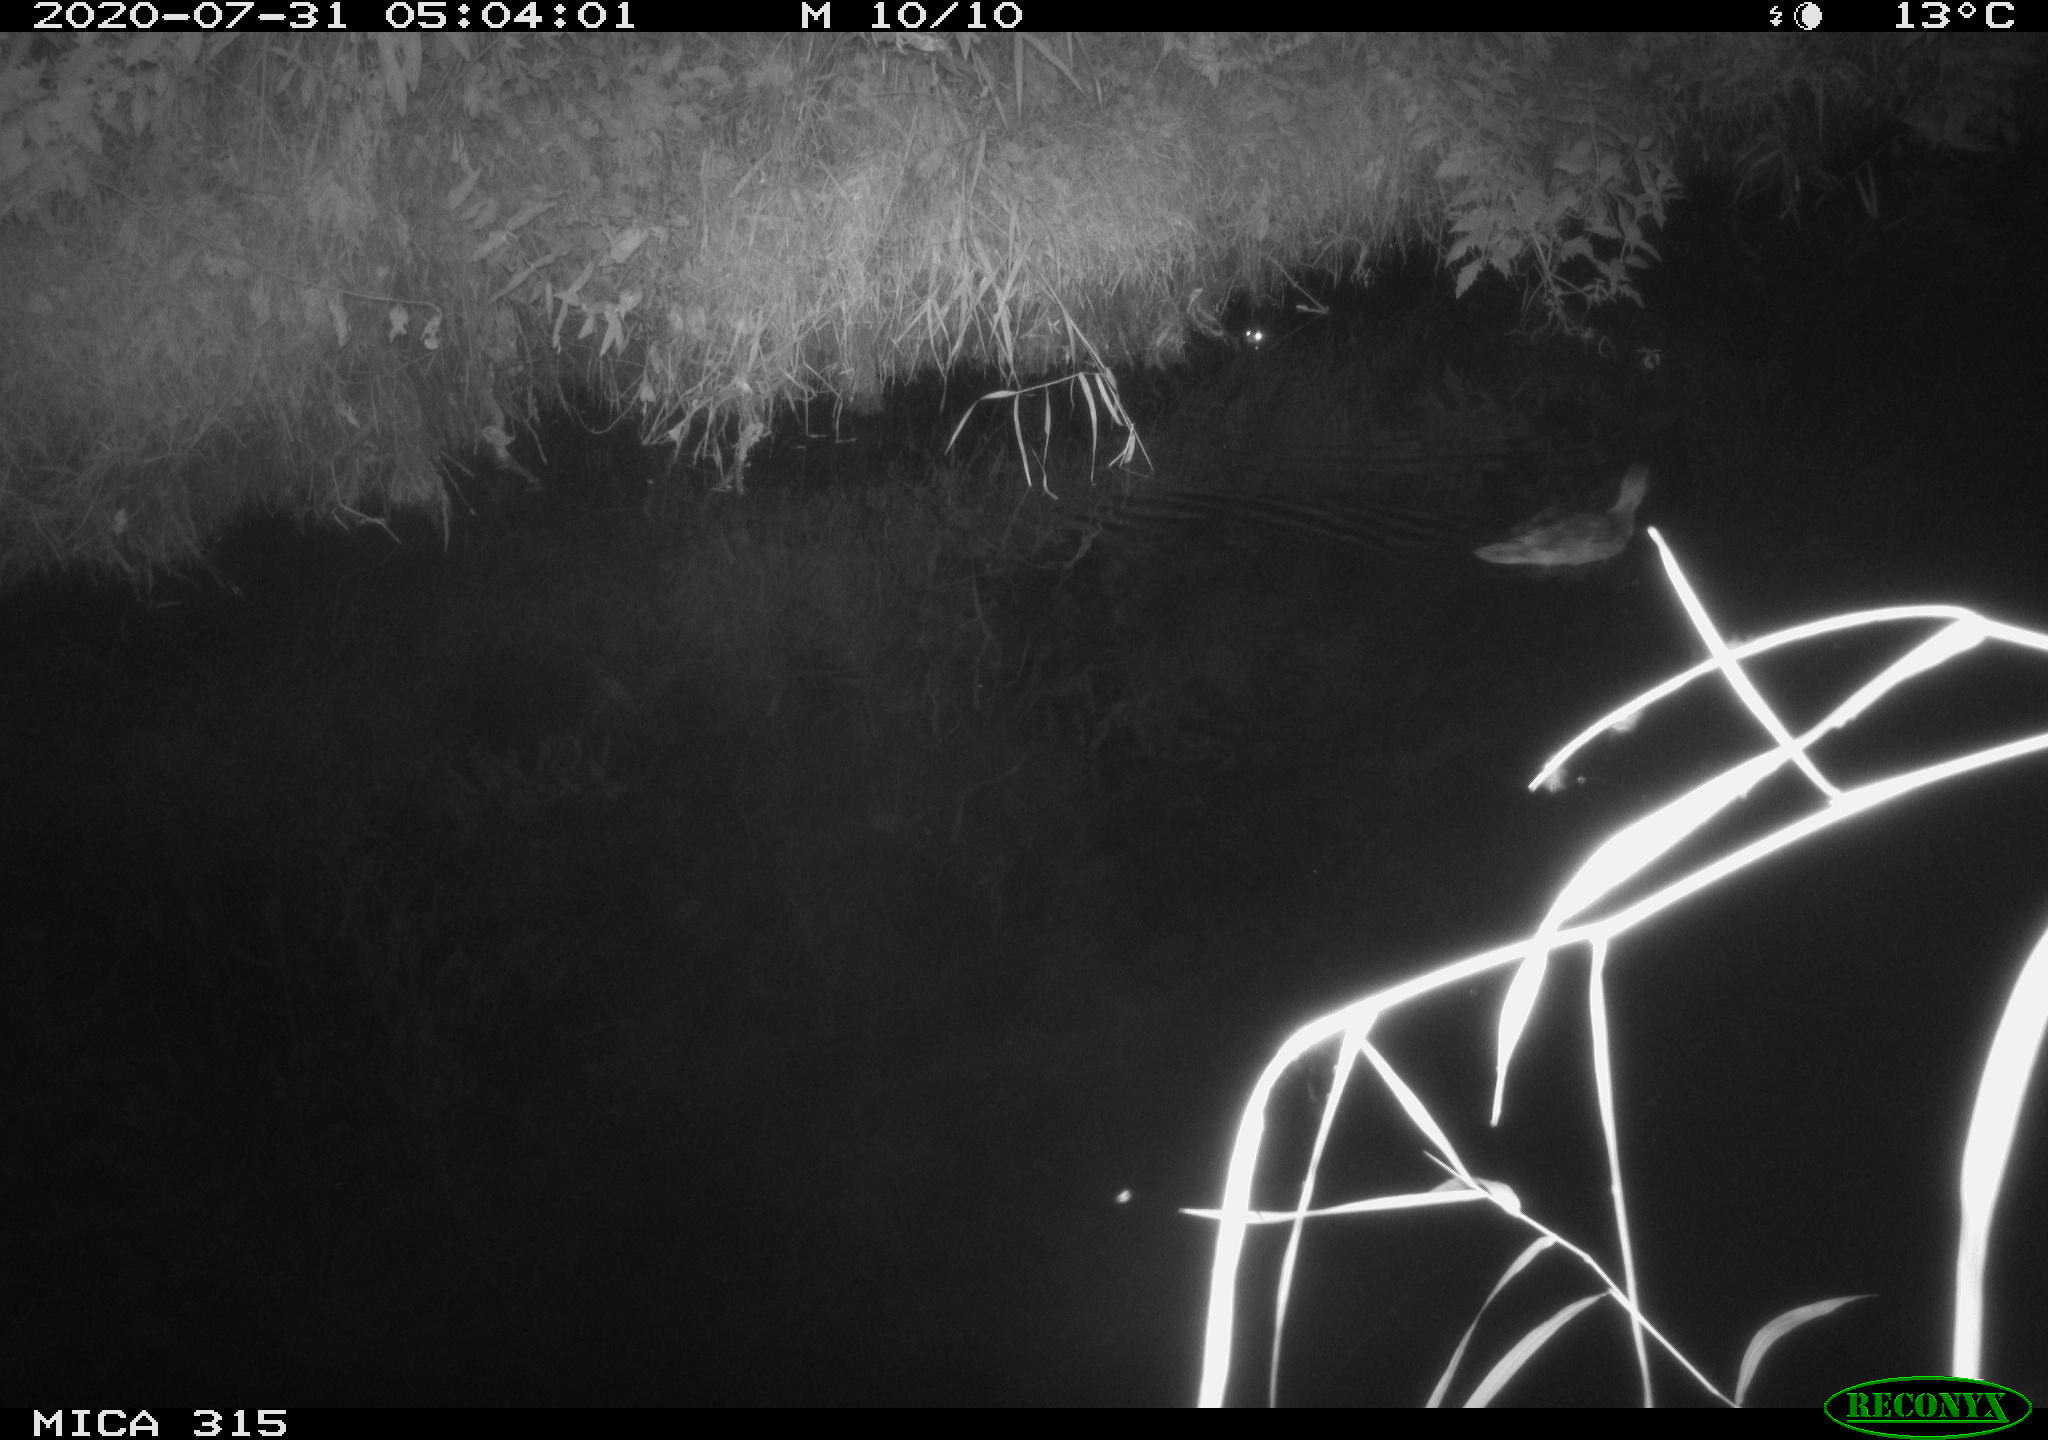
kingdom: Animalia
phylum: Chordata
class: Aves
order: Anseriformes
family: Anatidae
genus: Anas
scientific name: Anas platyrhynchos
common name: Mallard
